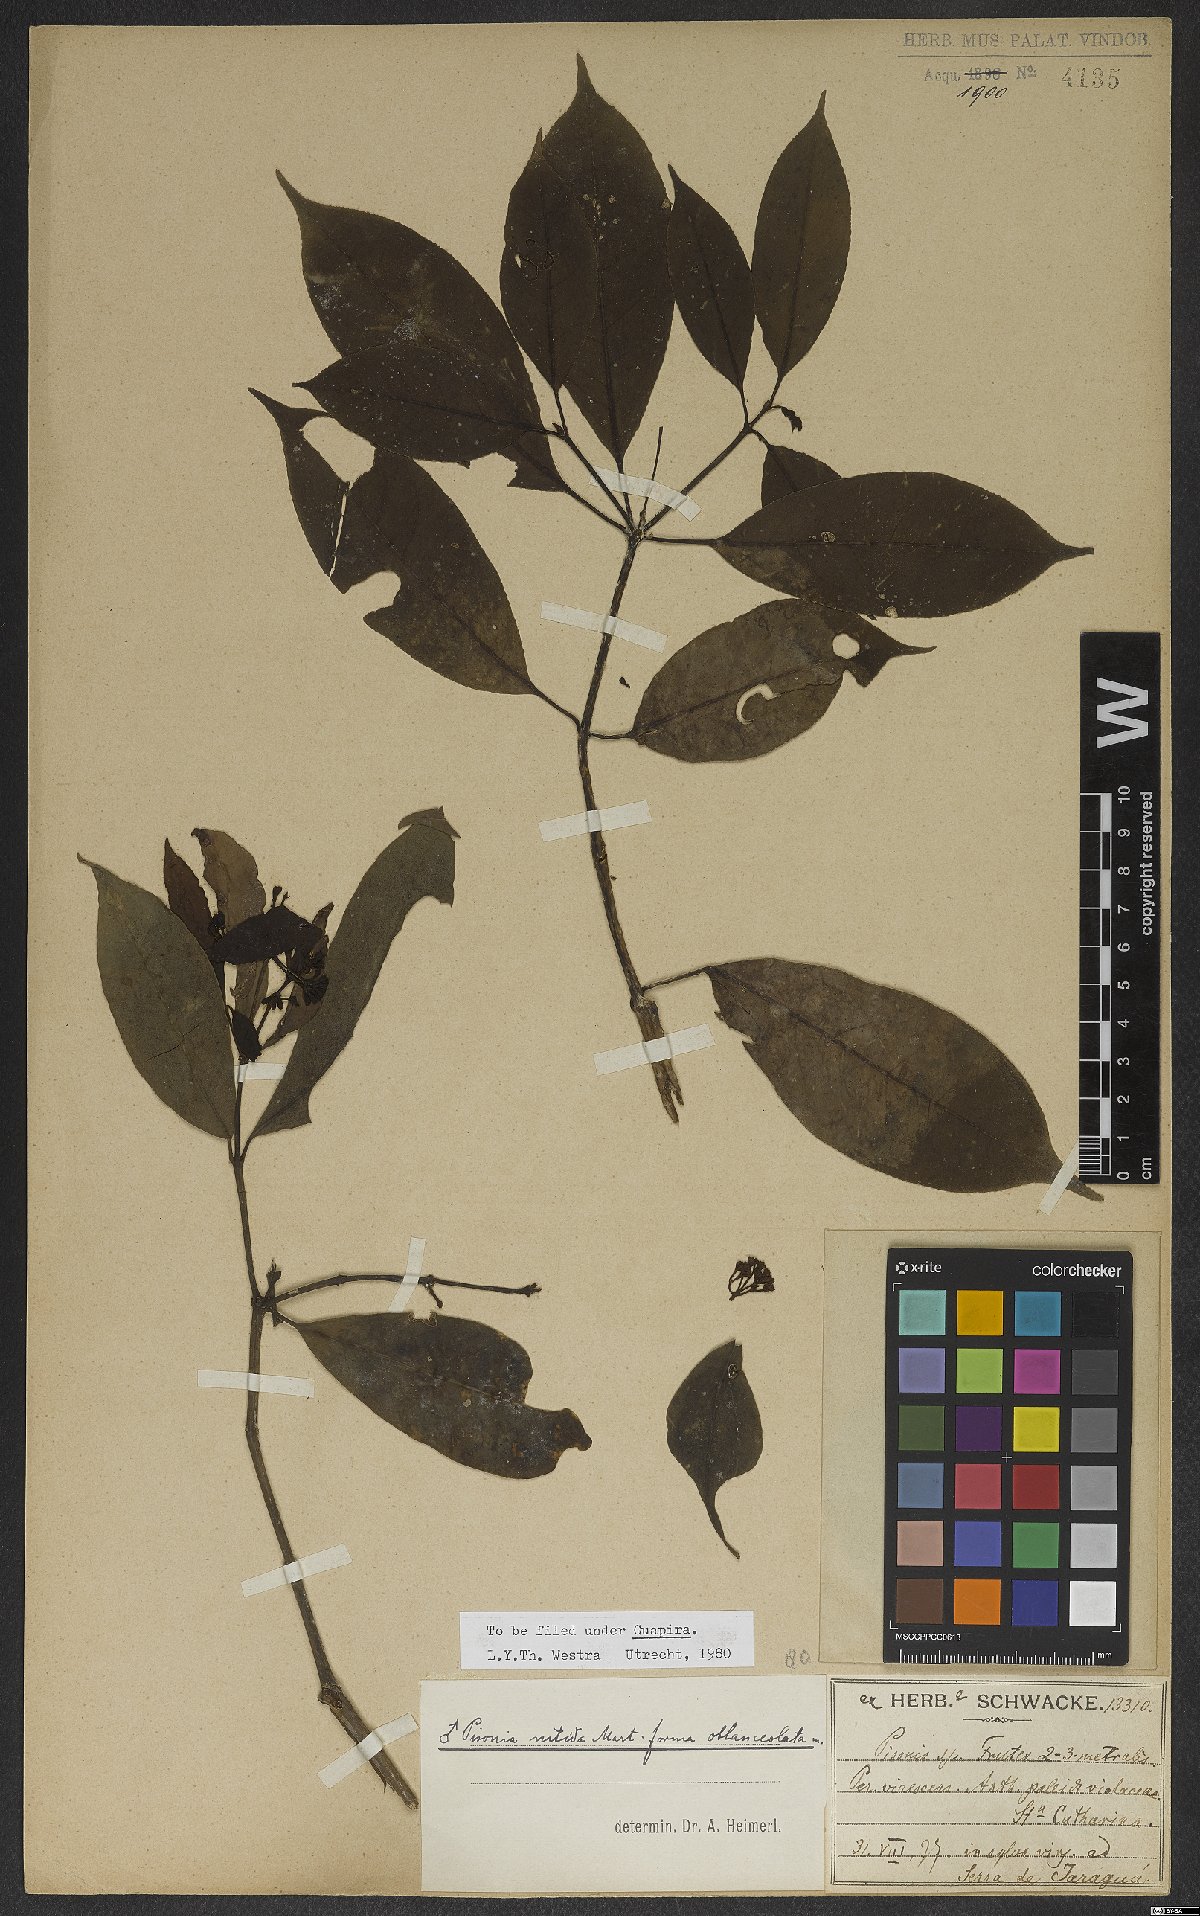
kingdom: Plantae
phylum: Tracheophyta
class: Magnoliopsida
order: Caryophyllales
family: Nyctaginaceae
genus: Guapira
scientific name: Guapira nitida
